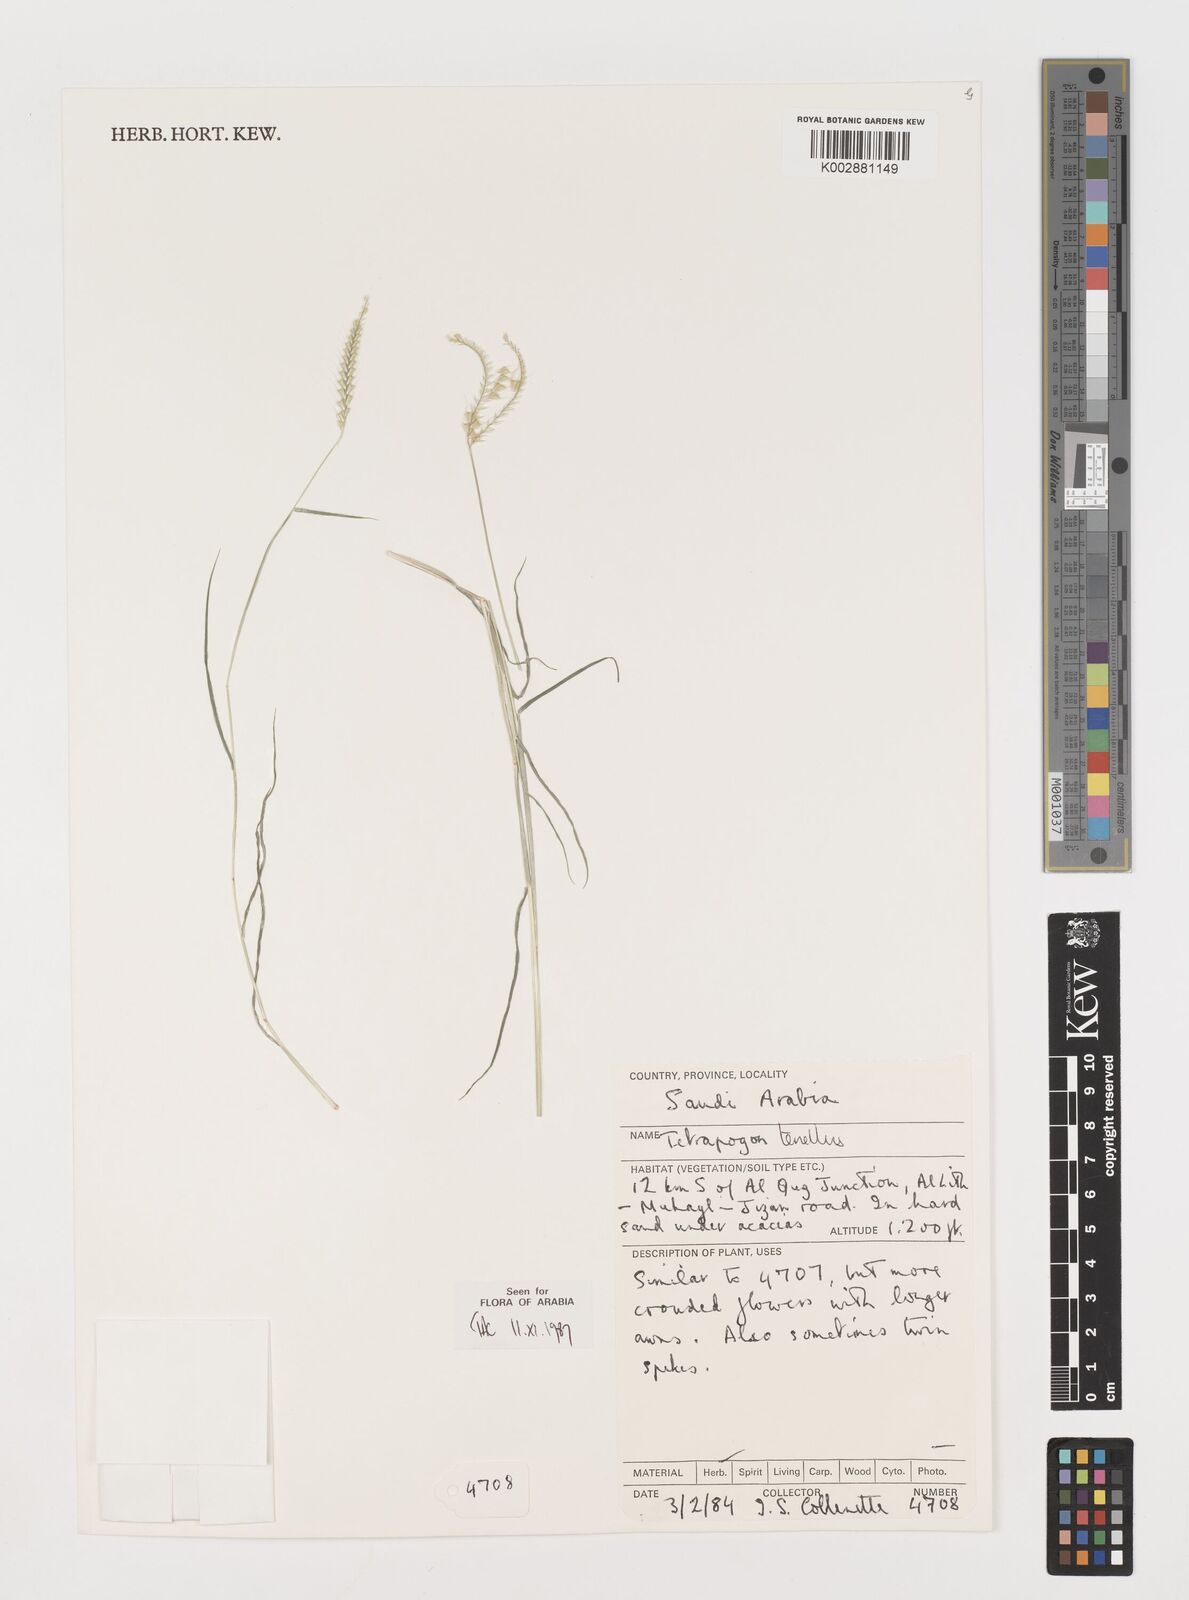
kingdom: Plantae
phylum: Tracheophyta
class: Liliopsida
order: Poales
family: Poaceae
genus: Tetrapogon
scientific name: Tetrapogon tenellus
